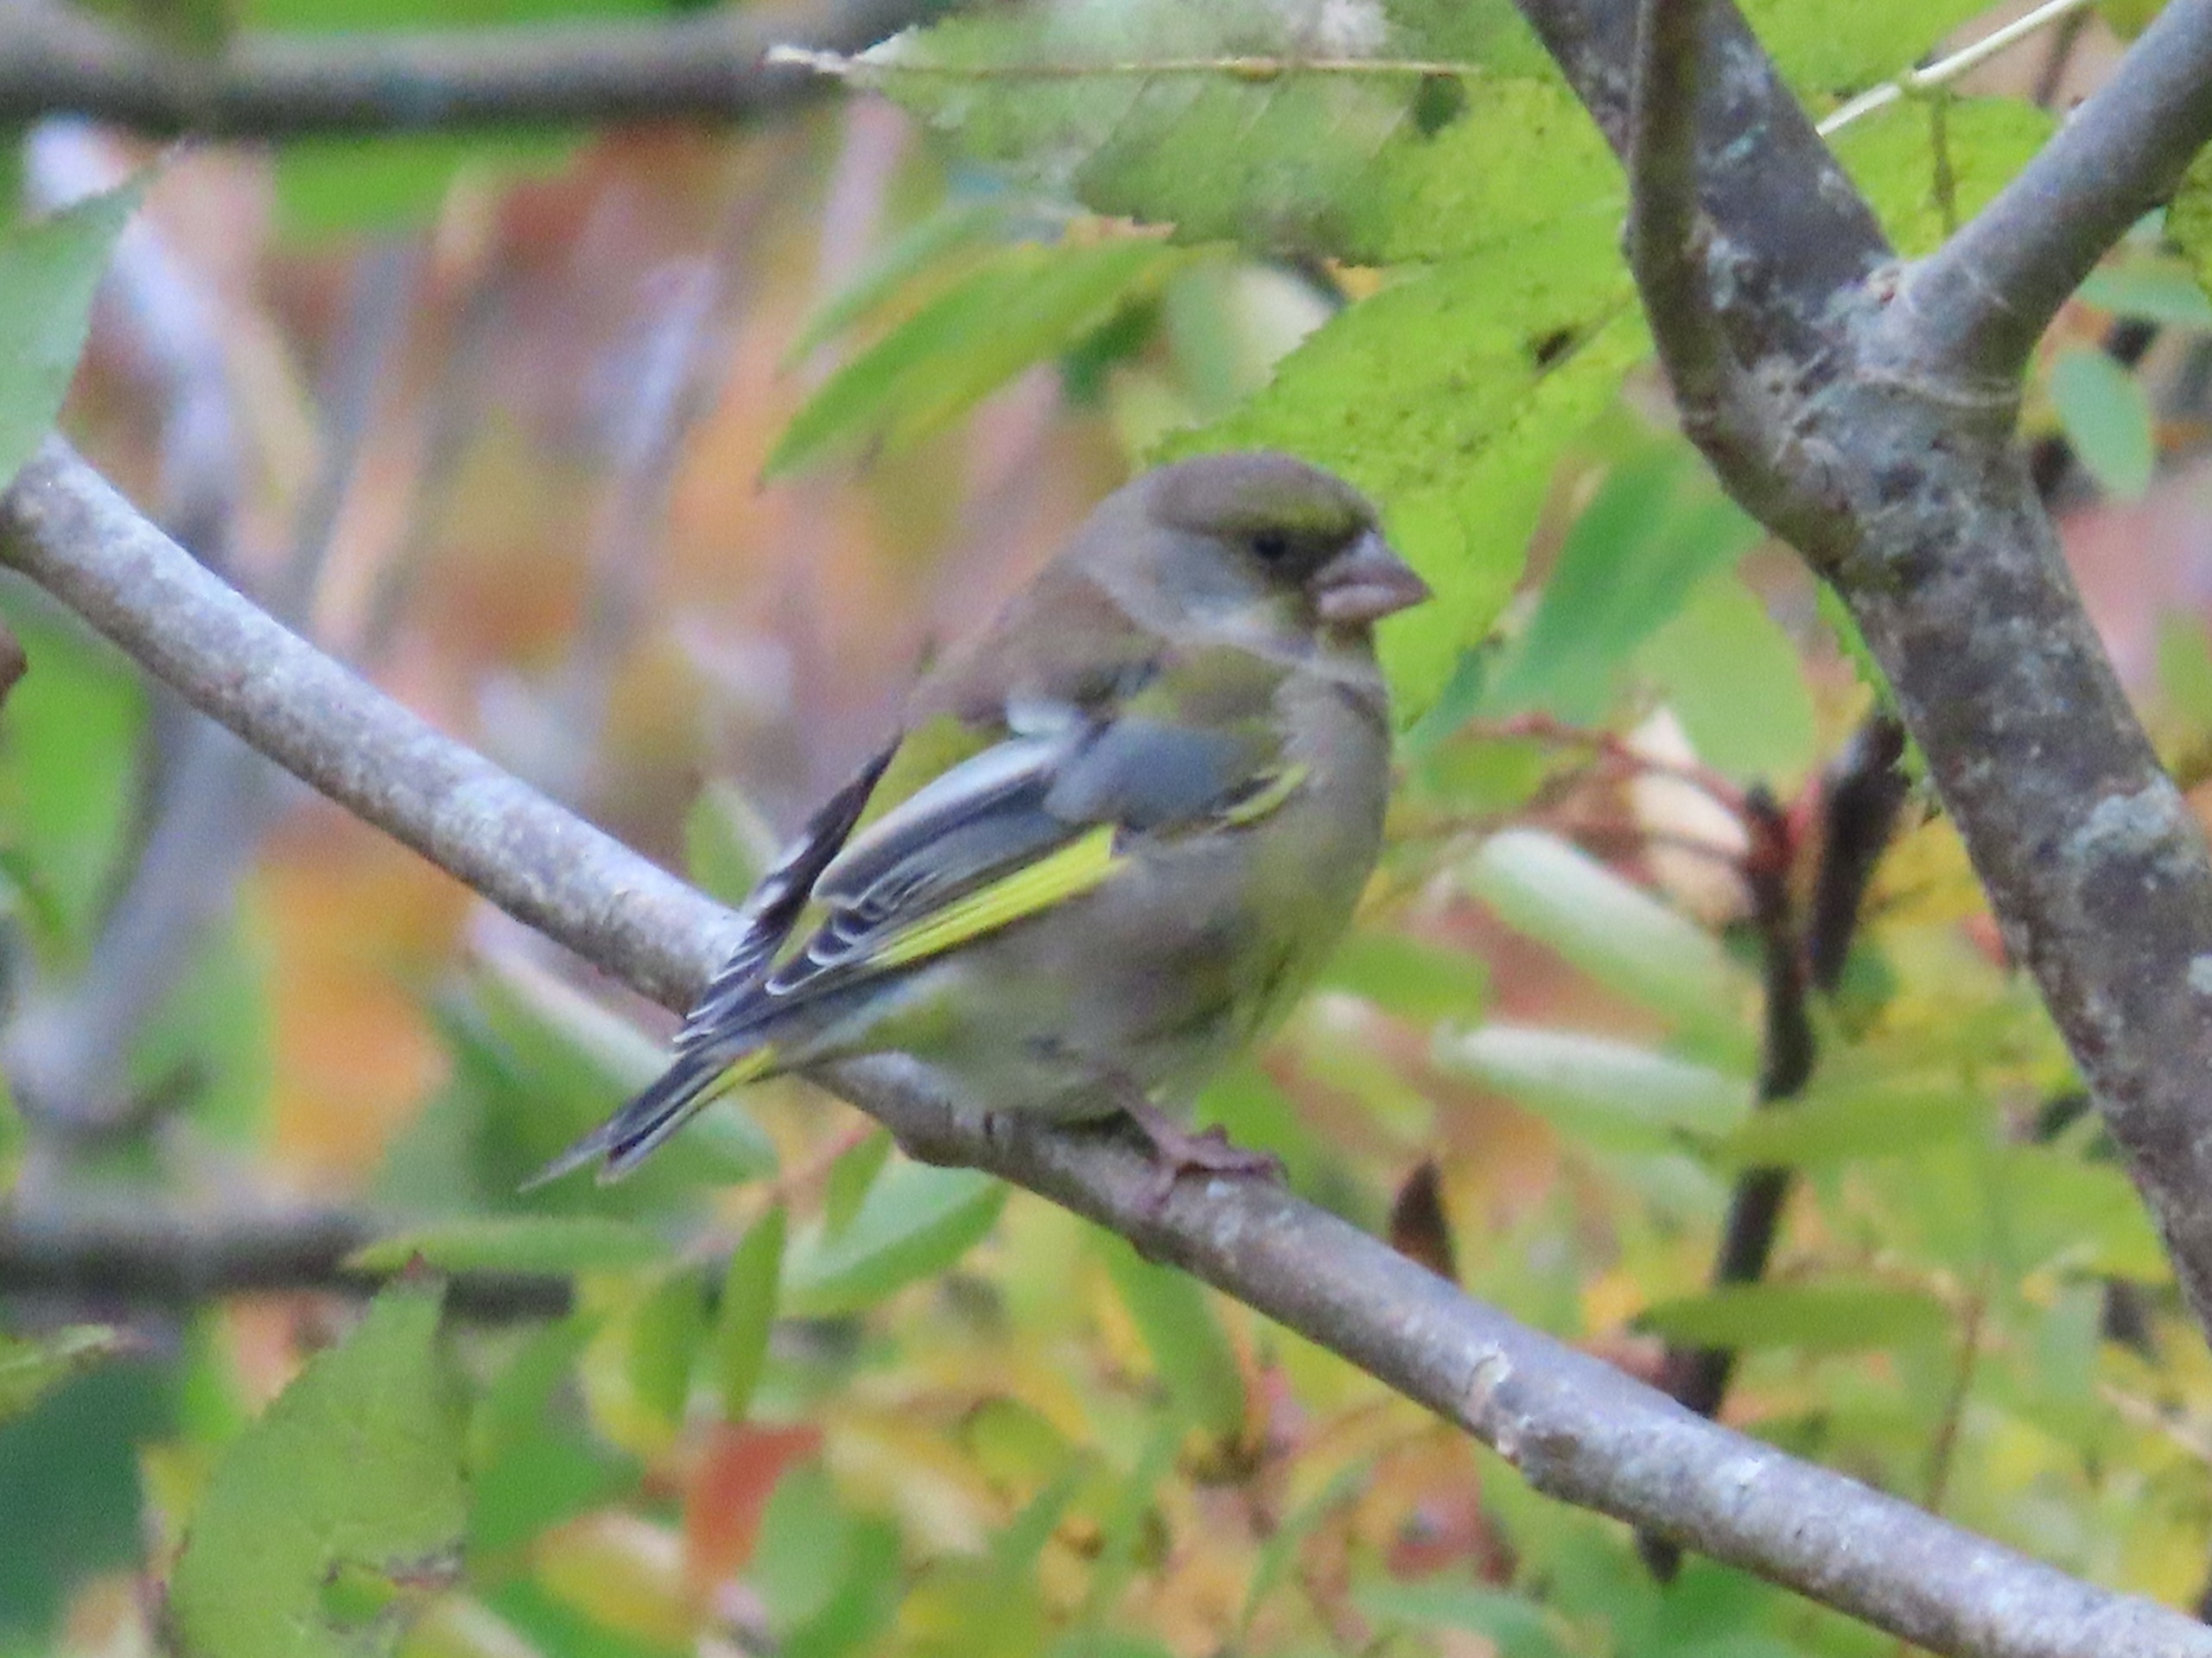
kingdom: Plantae
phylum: Tracheophyta
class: Liliopsida
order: Poales
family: Poaceae
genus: Chloris
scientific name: Chloris chloris
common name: Grønirisk
